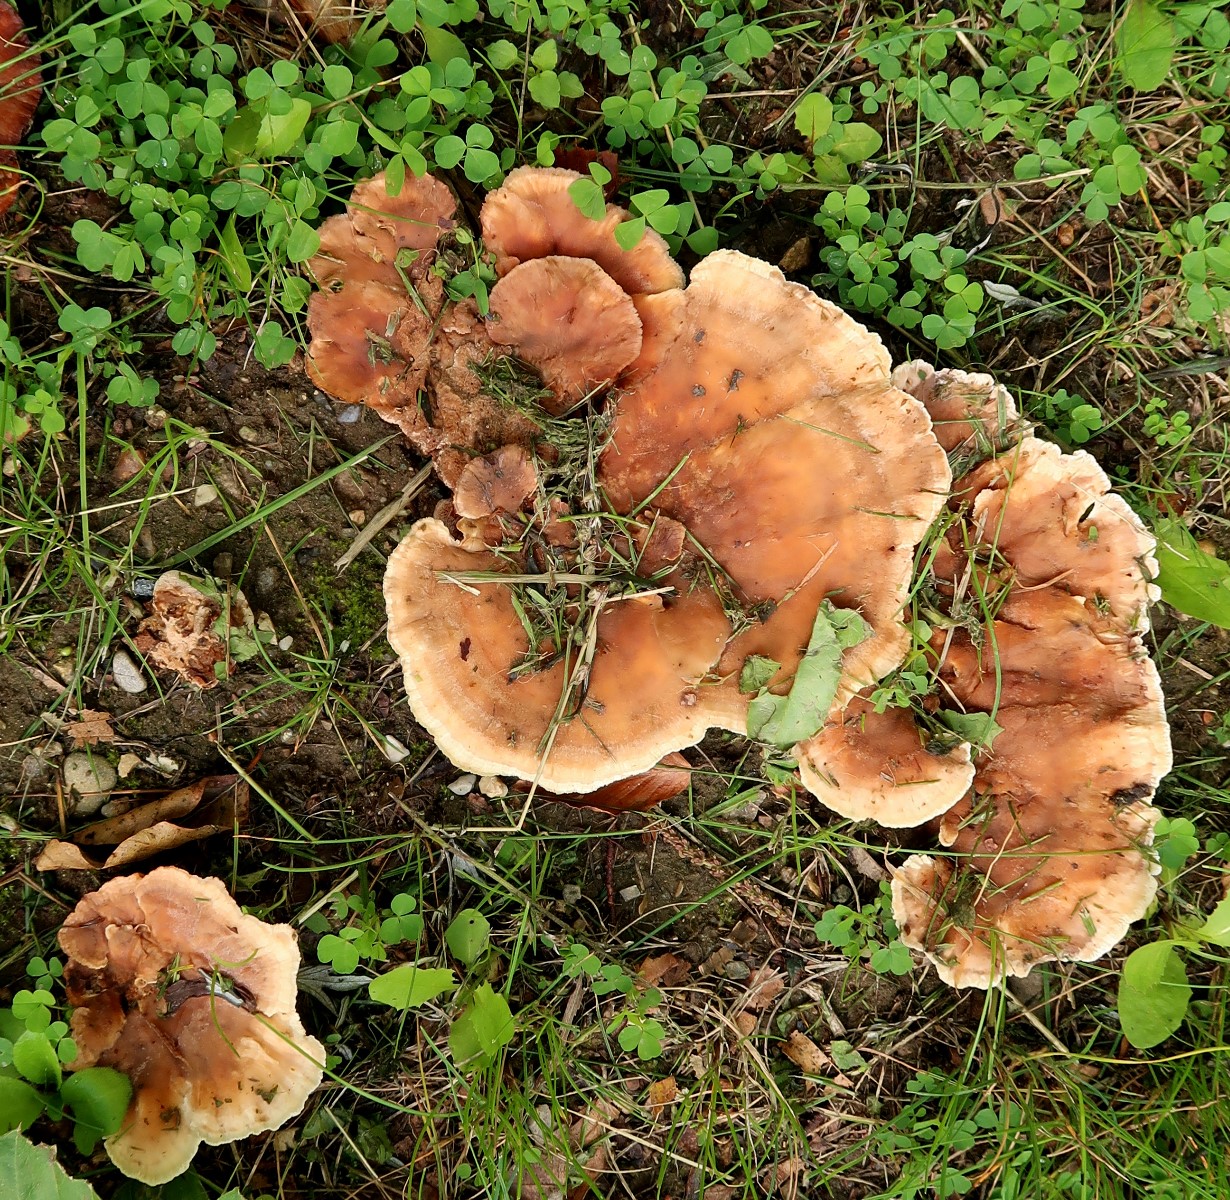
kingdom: Fungi
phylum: Basidiomycota
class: Agaricomycetes
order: Polyporales
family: Podoscyphaceae
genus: Abortiporus
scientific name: Abortiporus biennis
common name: rødmende pjalteporesvamp
